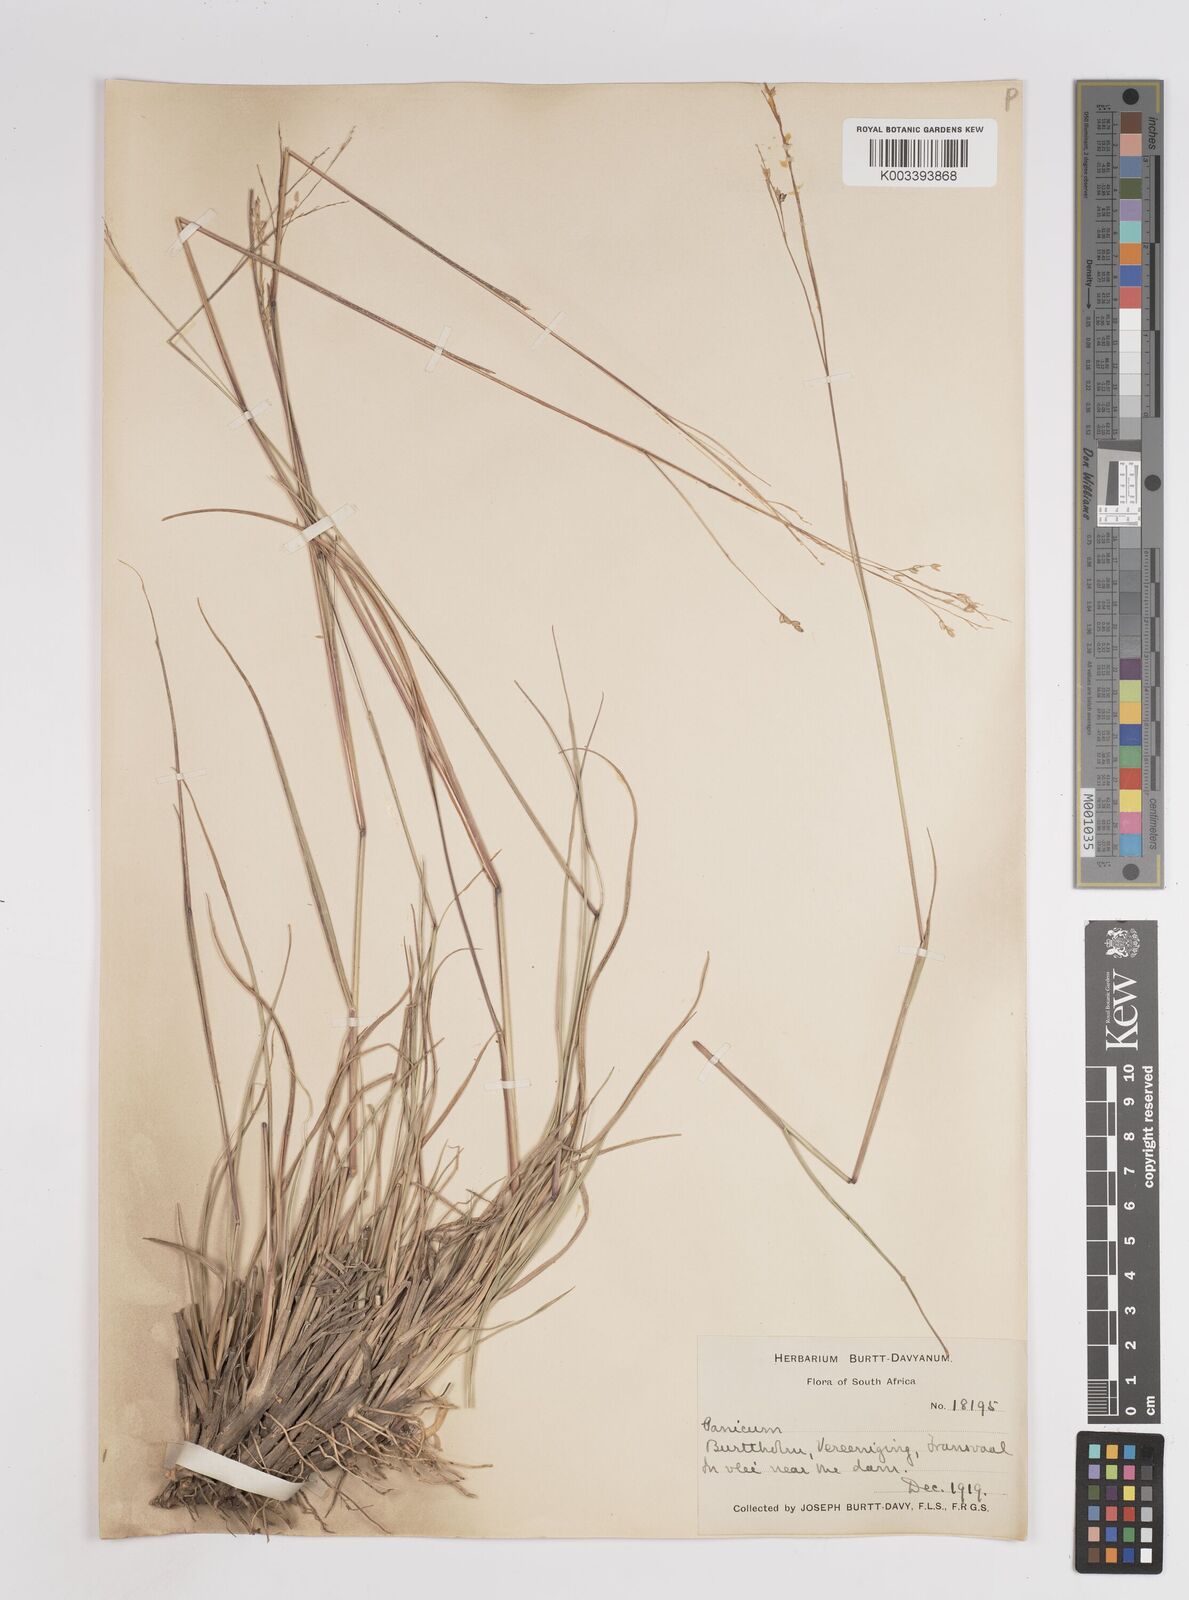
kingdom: Plantae
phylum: Tracheophyta
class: Liliopsida
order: Poales
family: Poaceae
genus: Panicum
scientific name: Panicum stapfianum
